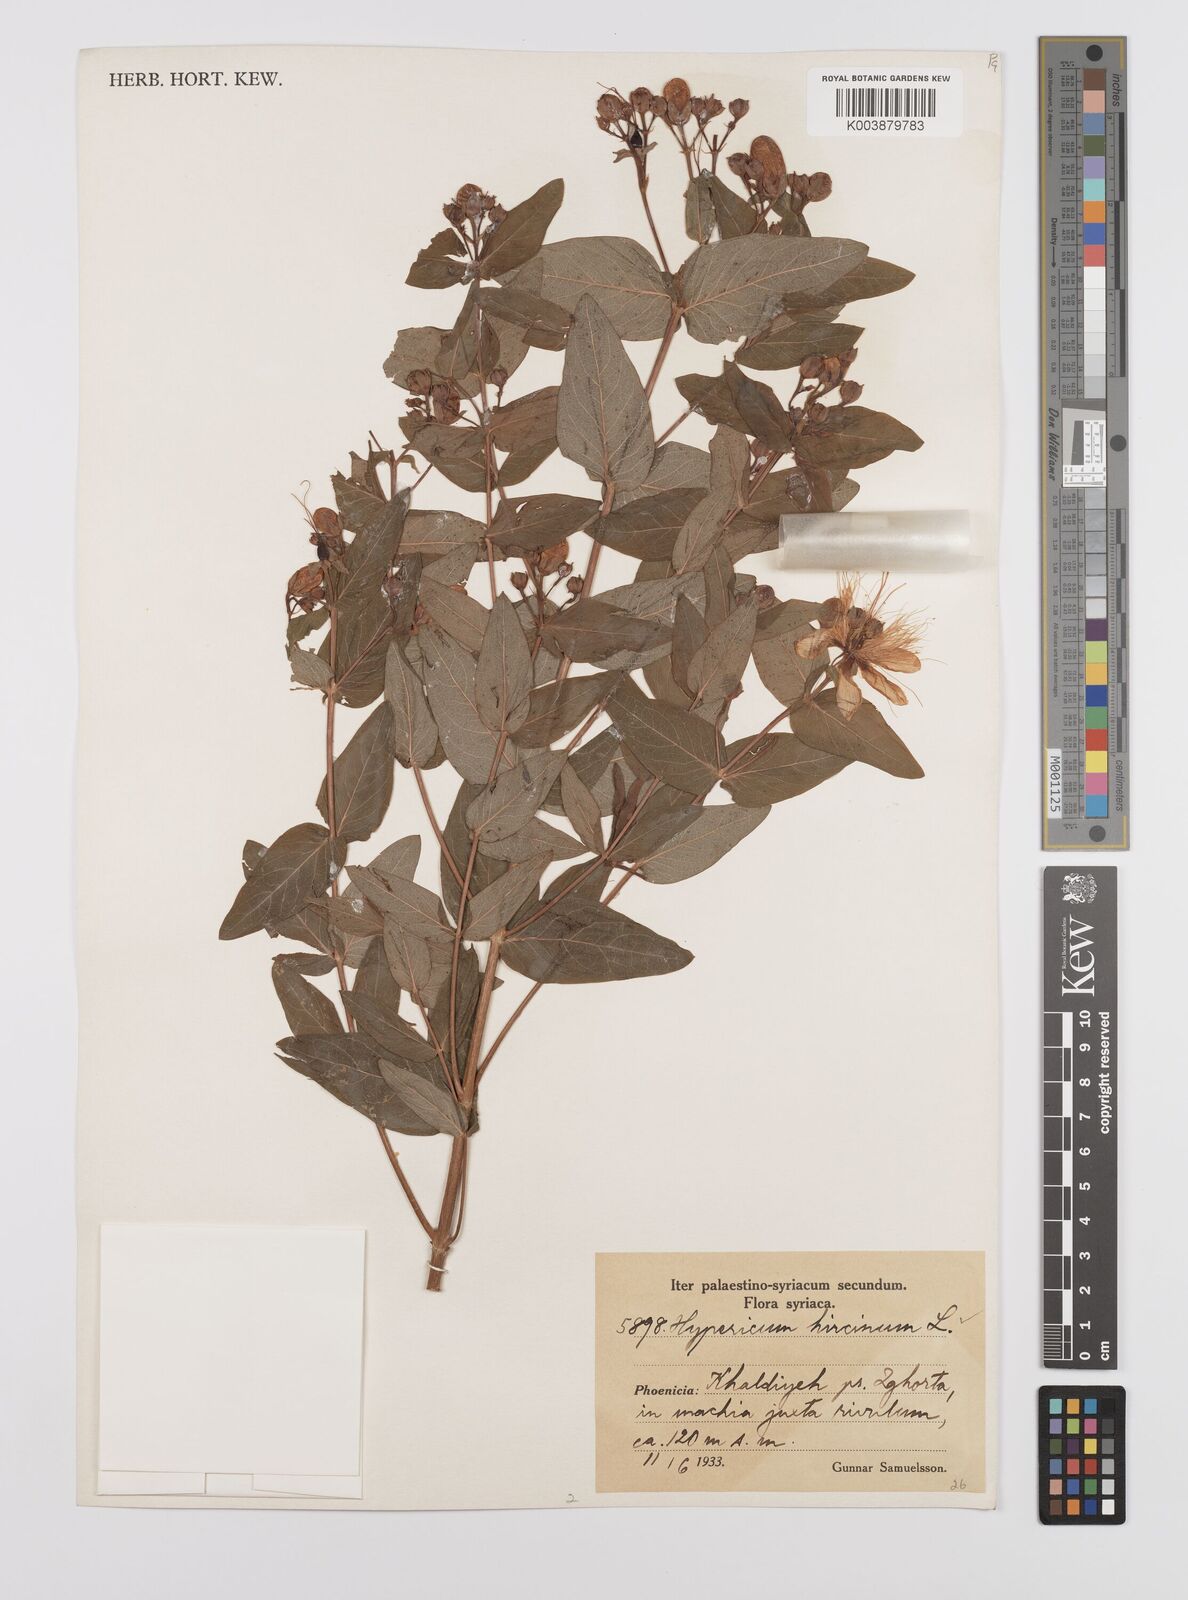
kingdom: Plantae
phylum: Tracheophyta
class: Magnoliopsida
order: Malpighiales
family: Hypericaceae
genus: Hypericum
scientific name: Hypericum hircinum
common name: Stinking tutsan
